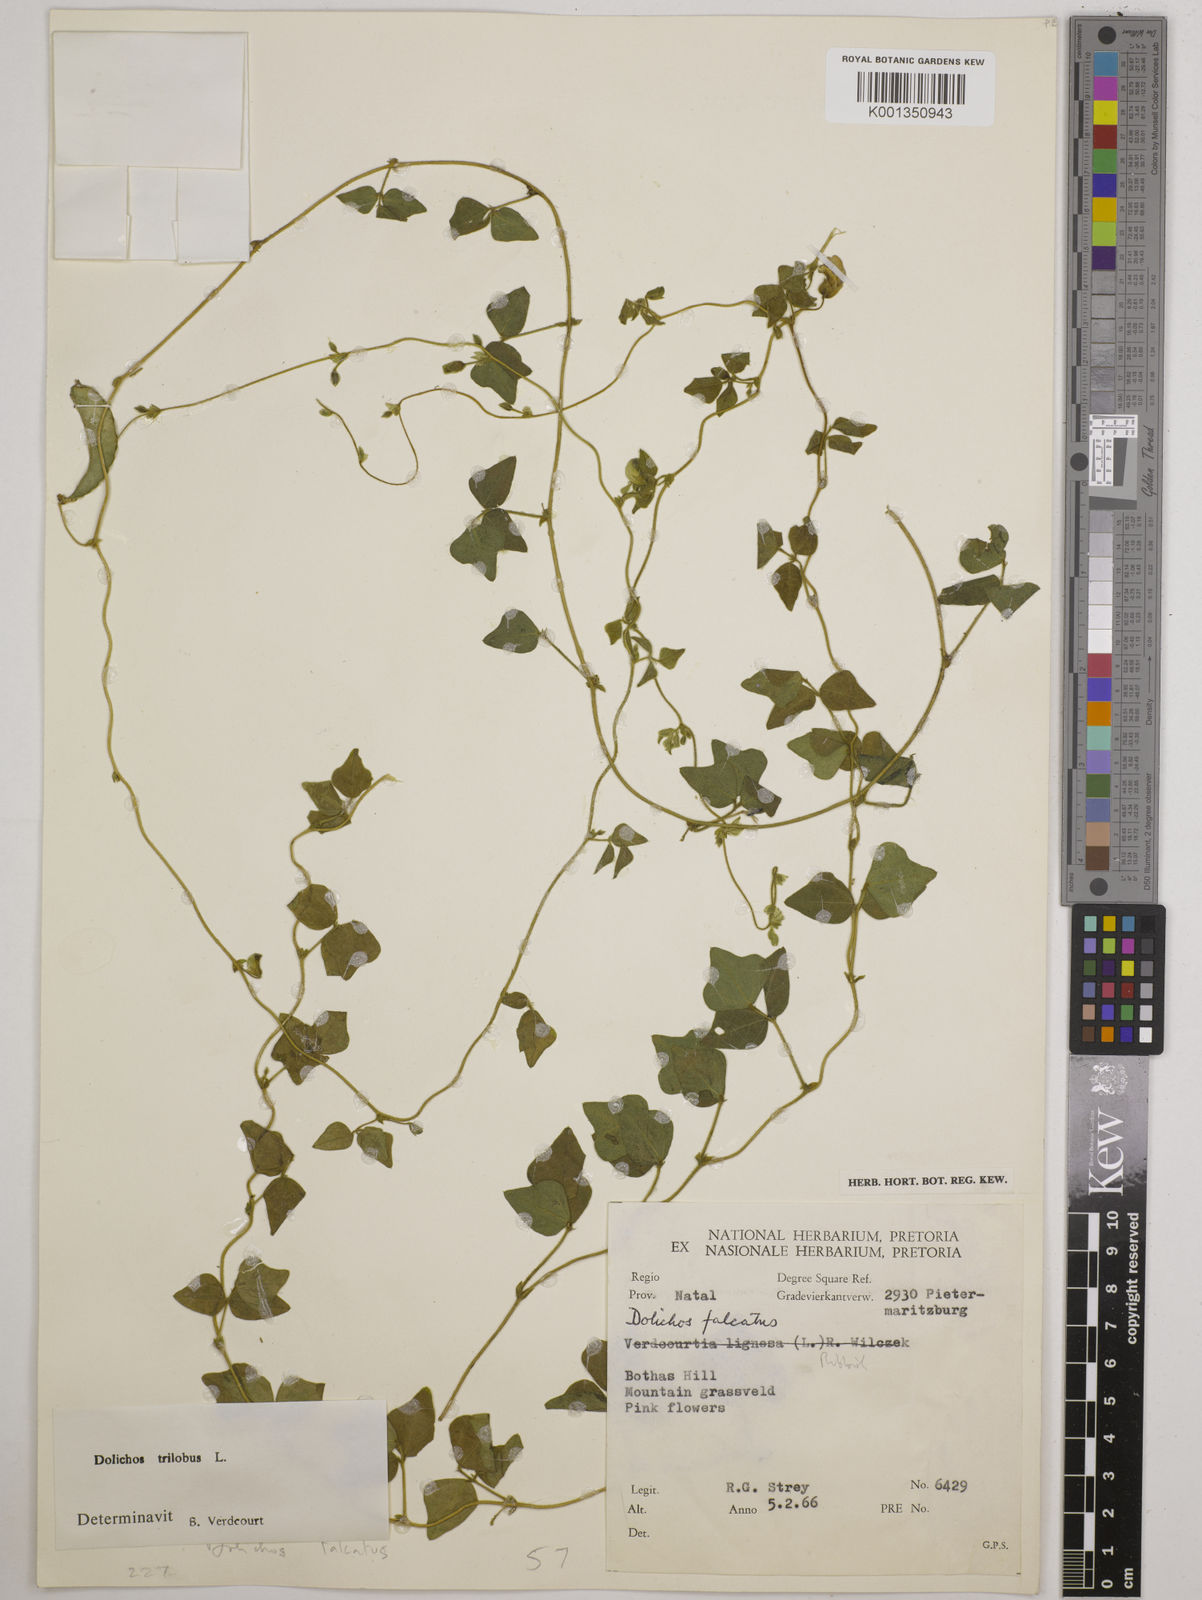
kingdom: Plantae
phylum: Tracheophyta
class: Magnoliopsida
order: Fabales
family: Fabaceae
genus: Dolichos
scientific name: Dolichos
